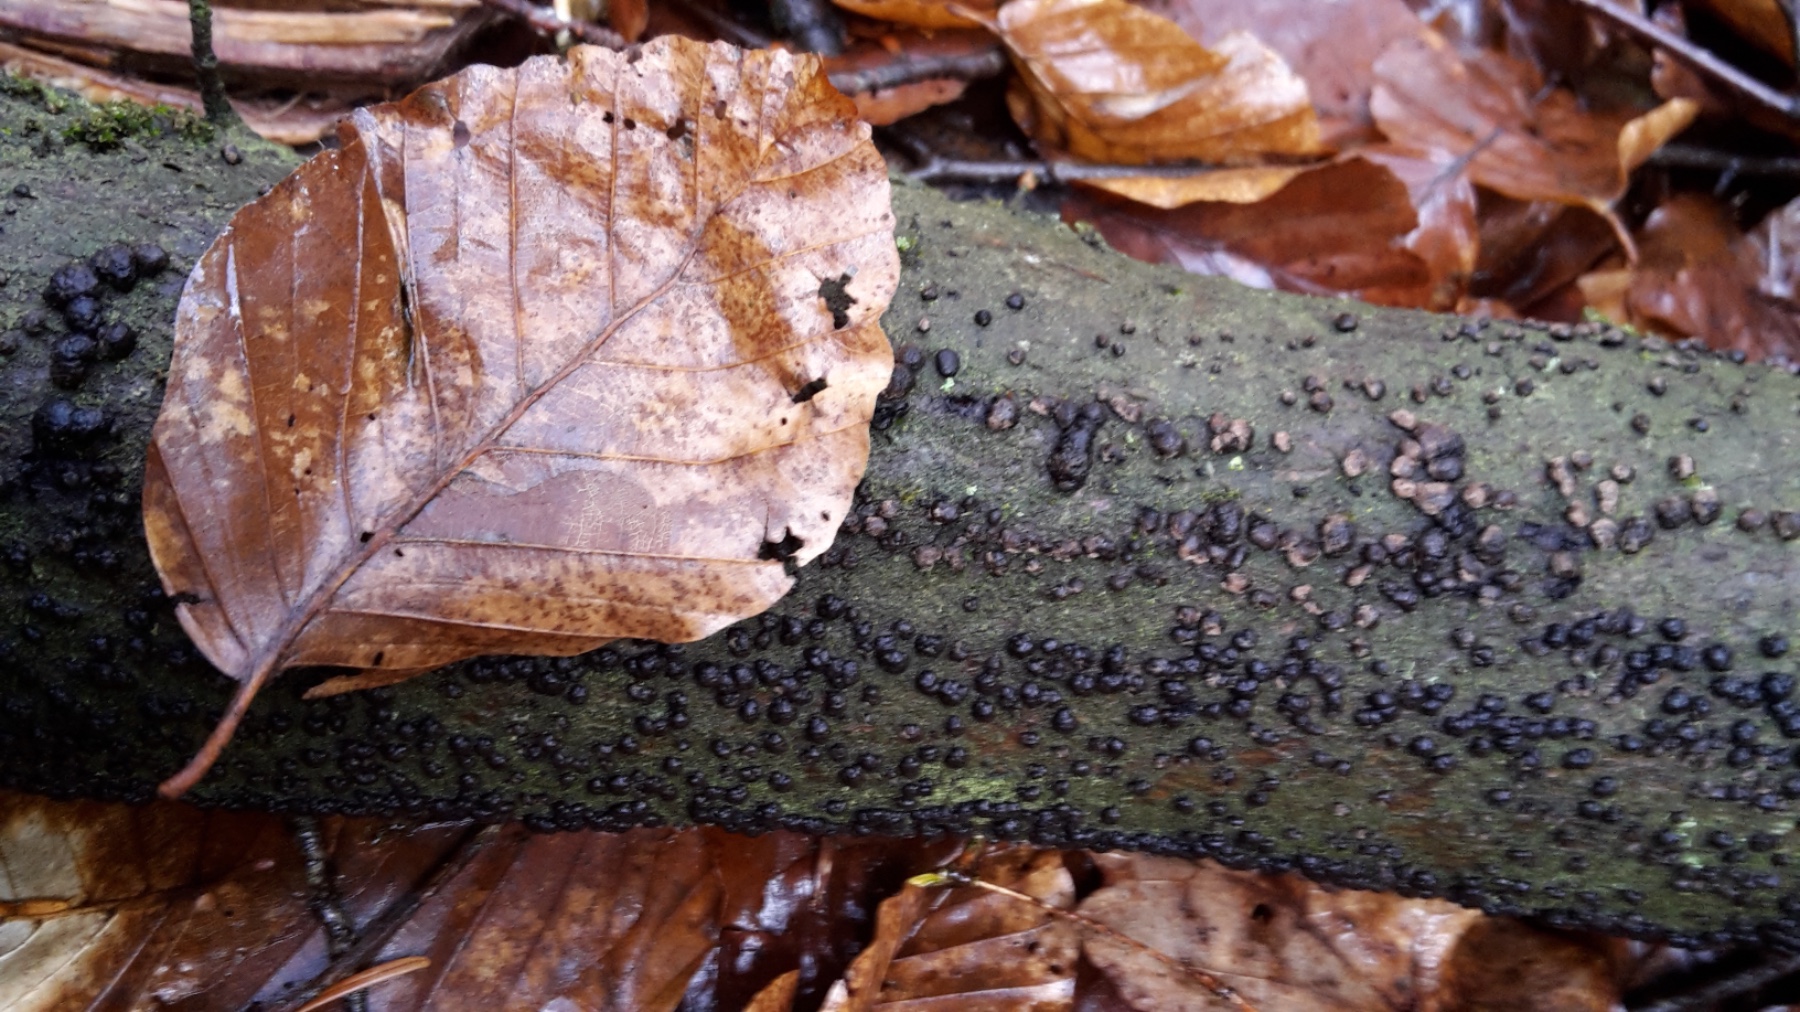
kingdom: Fungi
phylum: Ascomycota
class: Sordariomycetes
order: Xylariales
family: Hypoxylaceae
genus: Jackrogersella
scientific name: Jackrogersella cohaerens
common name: sammenflydende kulbær
